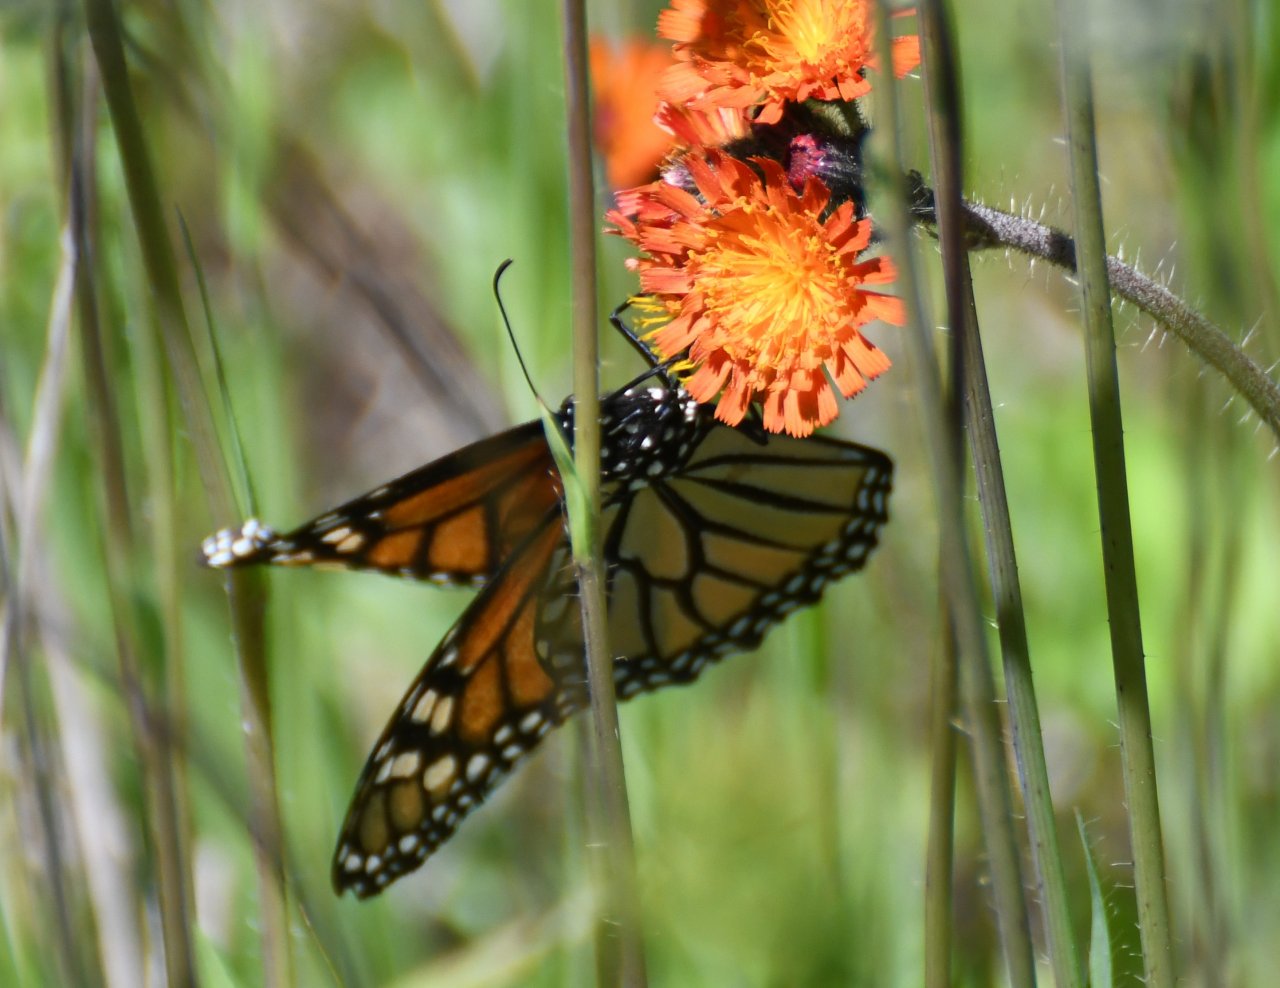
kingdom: Animalia
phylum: Arthropoda
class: Insecta
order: Lepidoptera
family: Nymphalidae
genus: Danaus
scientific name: Danaus plexippus
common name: Monarch
